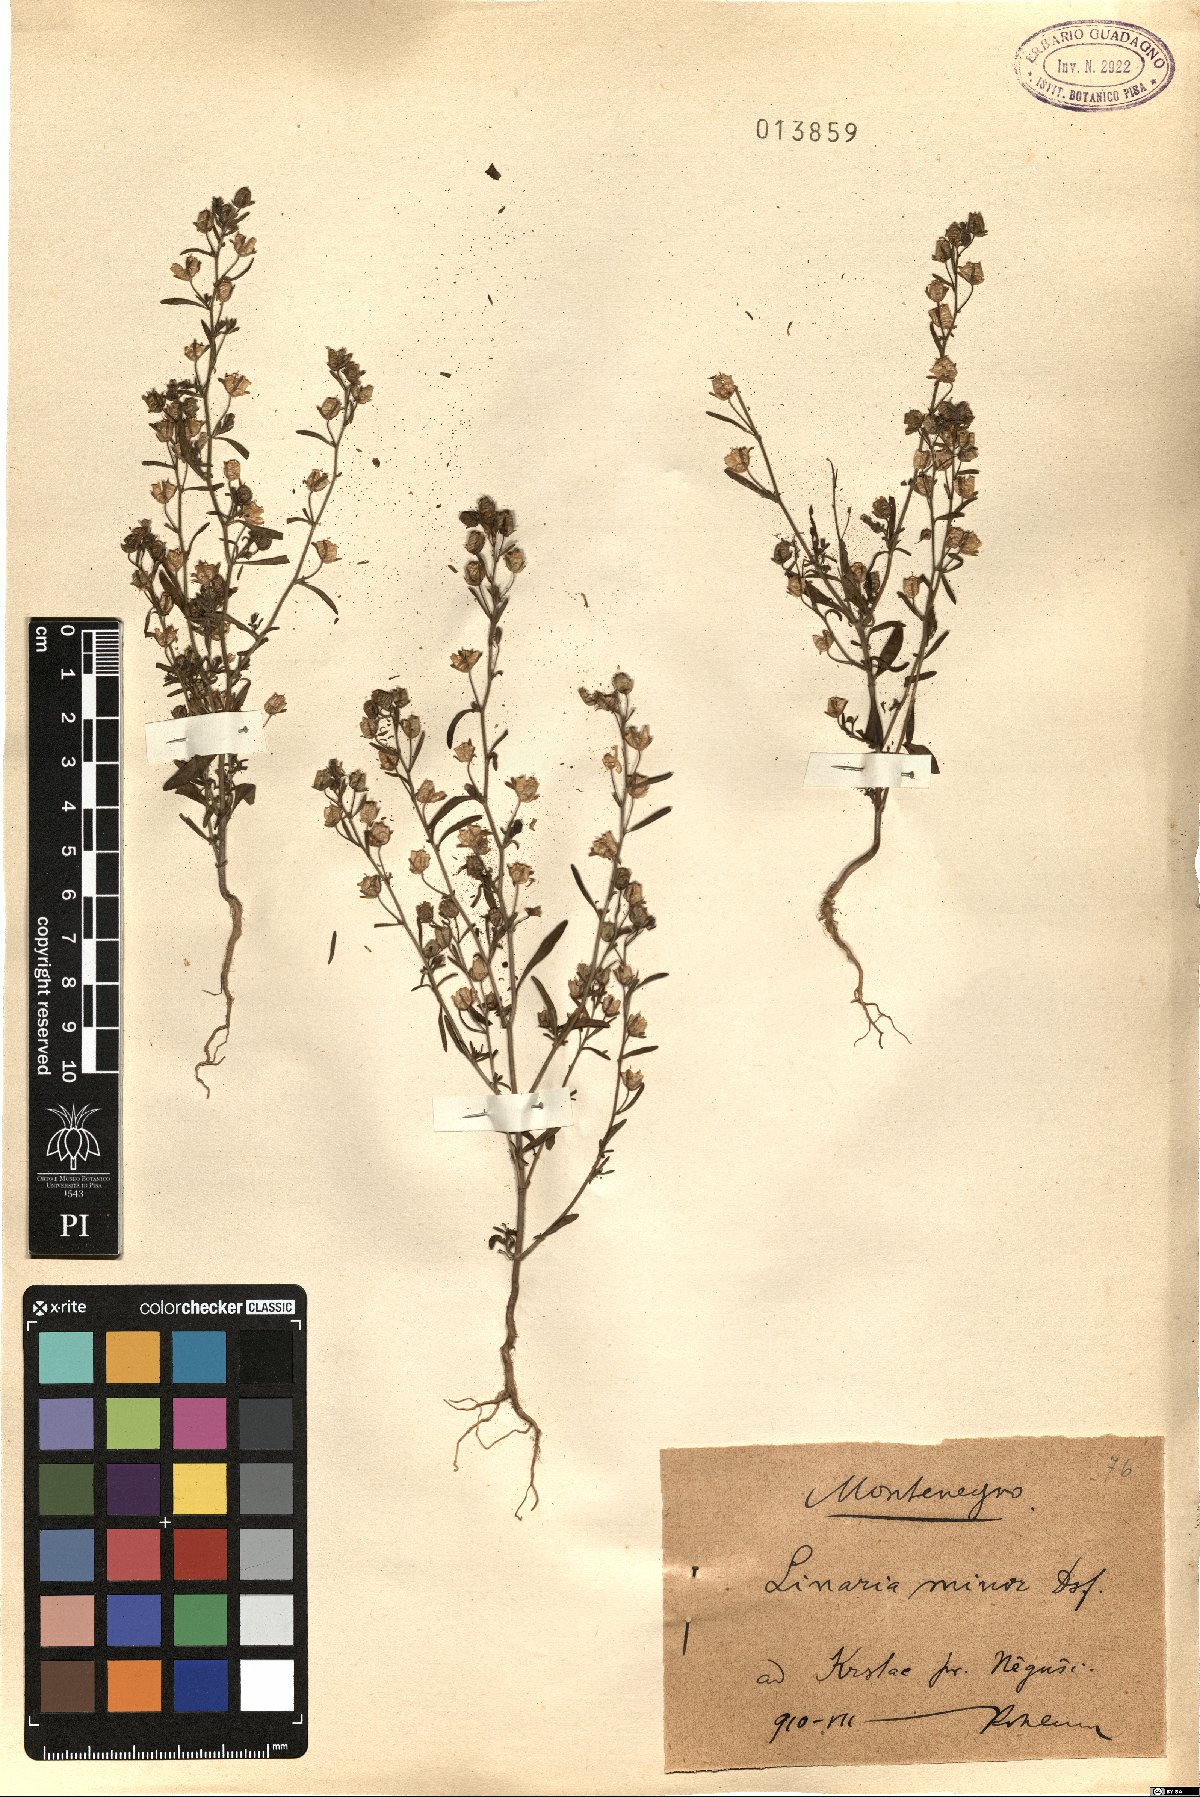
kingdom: Plantae
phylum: Tracheophyta
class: Magnoliopsida
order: Lamiales
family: Plantaginaceae
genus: Chaenorhinum
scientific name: Chaenorhinum minus
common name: Dwarf snapdragon
